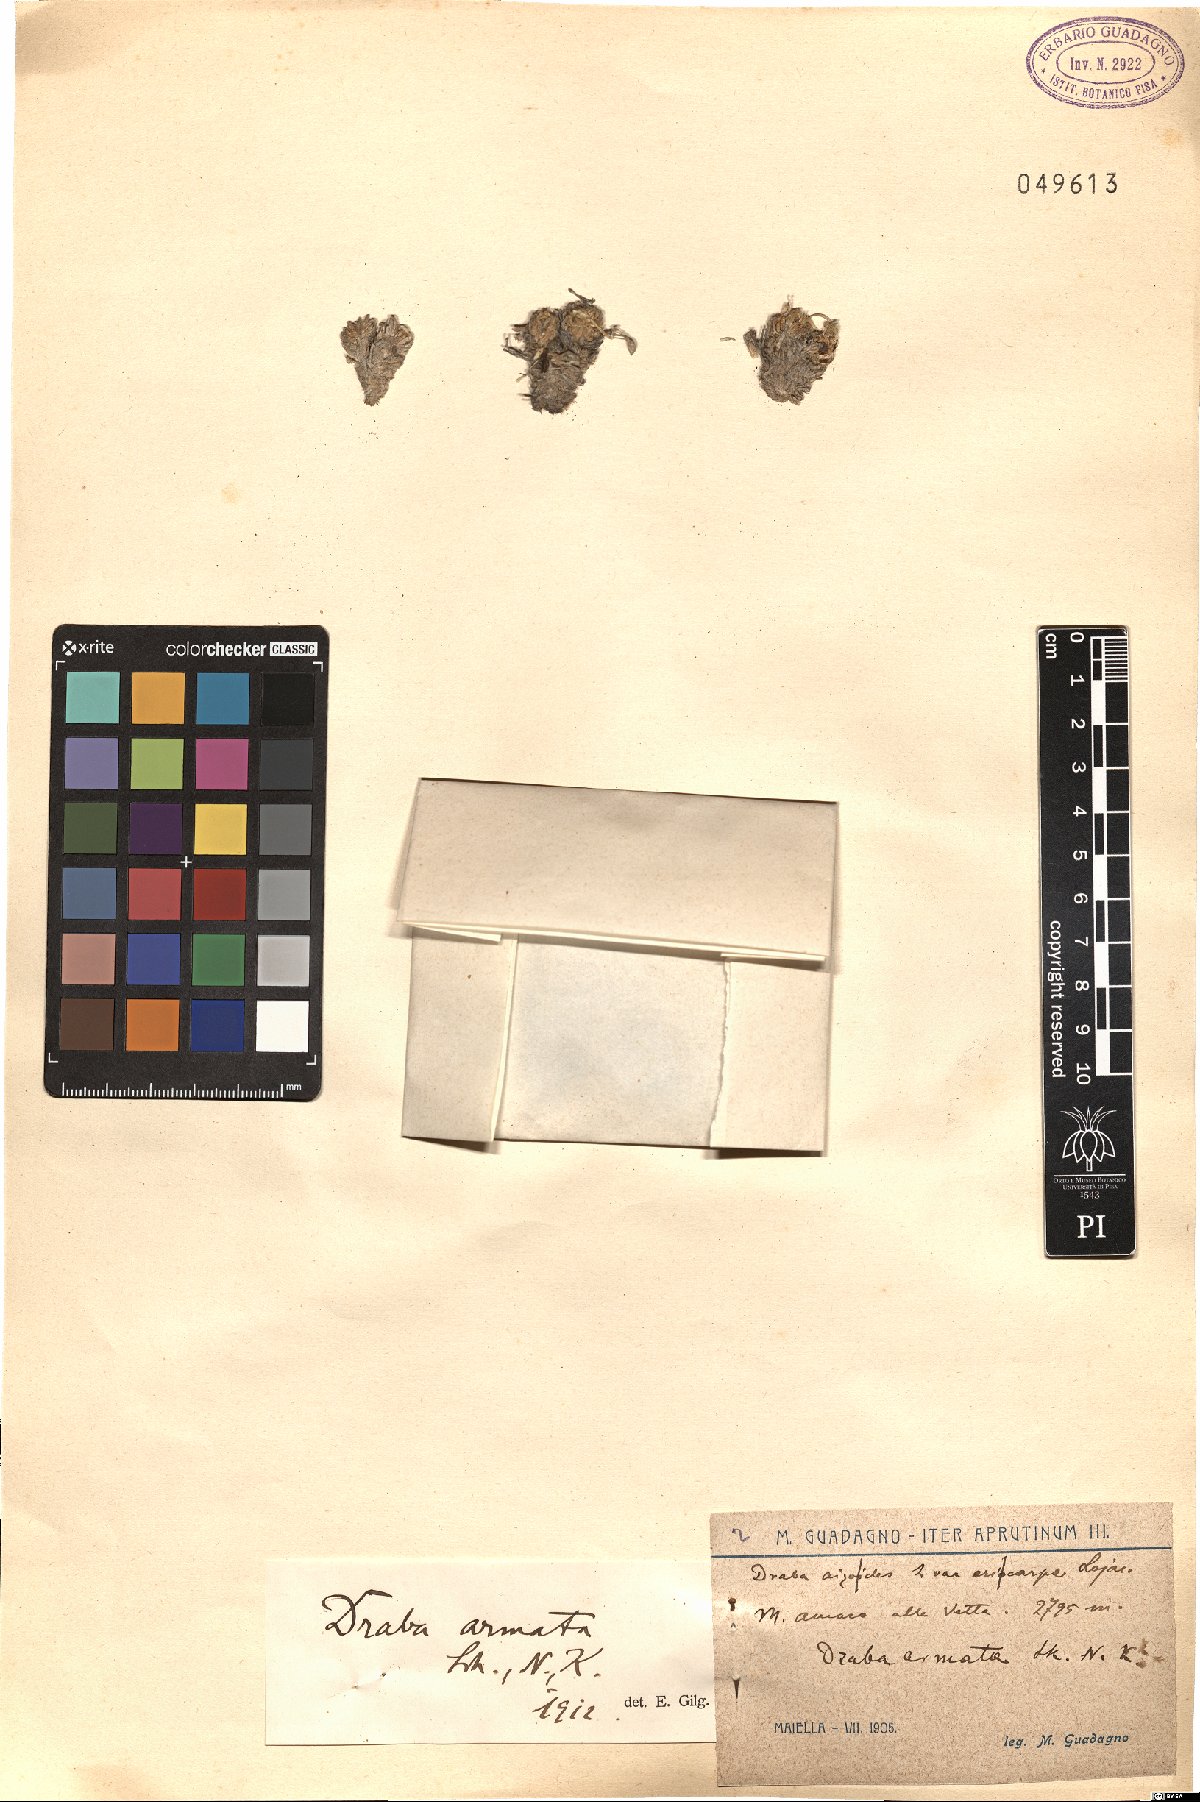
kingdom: Plantae
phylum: Tracheophyta
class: Magnoliopsida
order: Brassicales
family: Brassicaceae
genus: Draba
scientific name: Draba aspera
